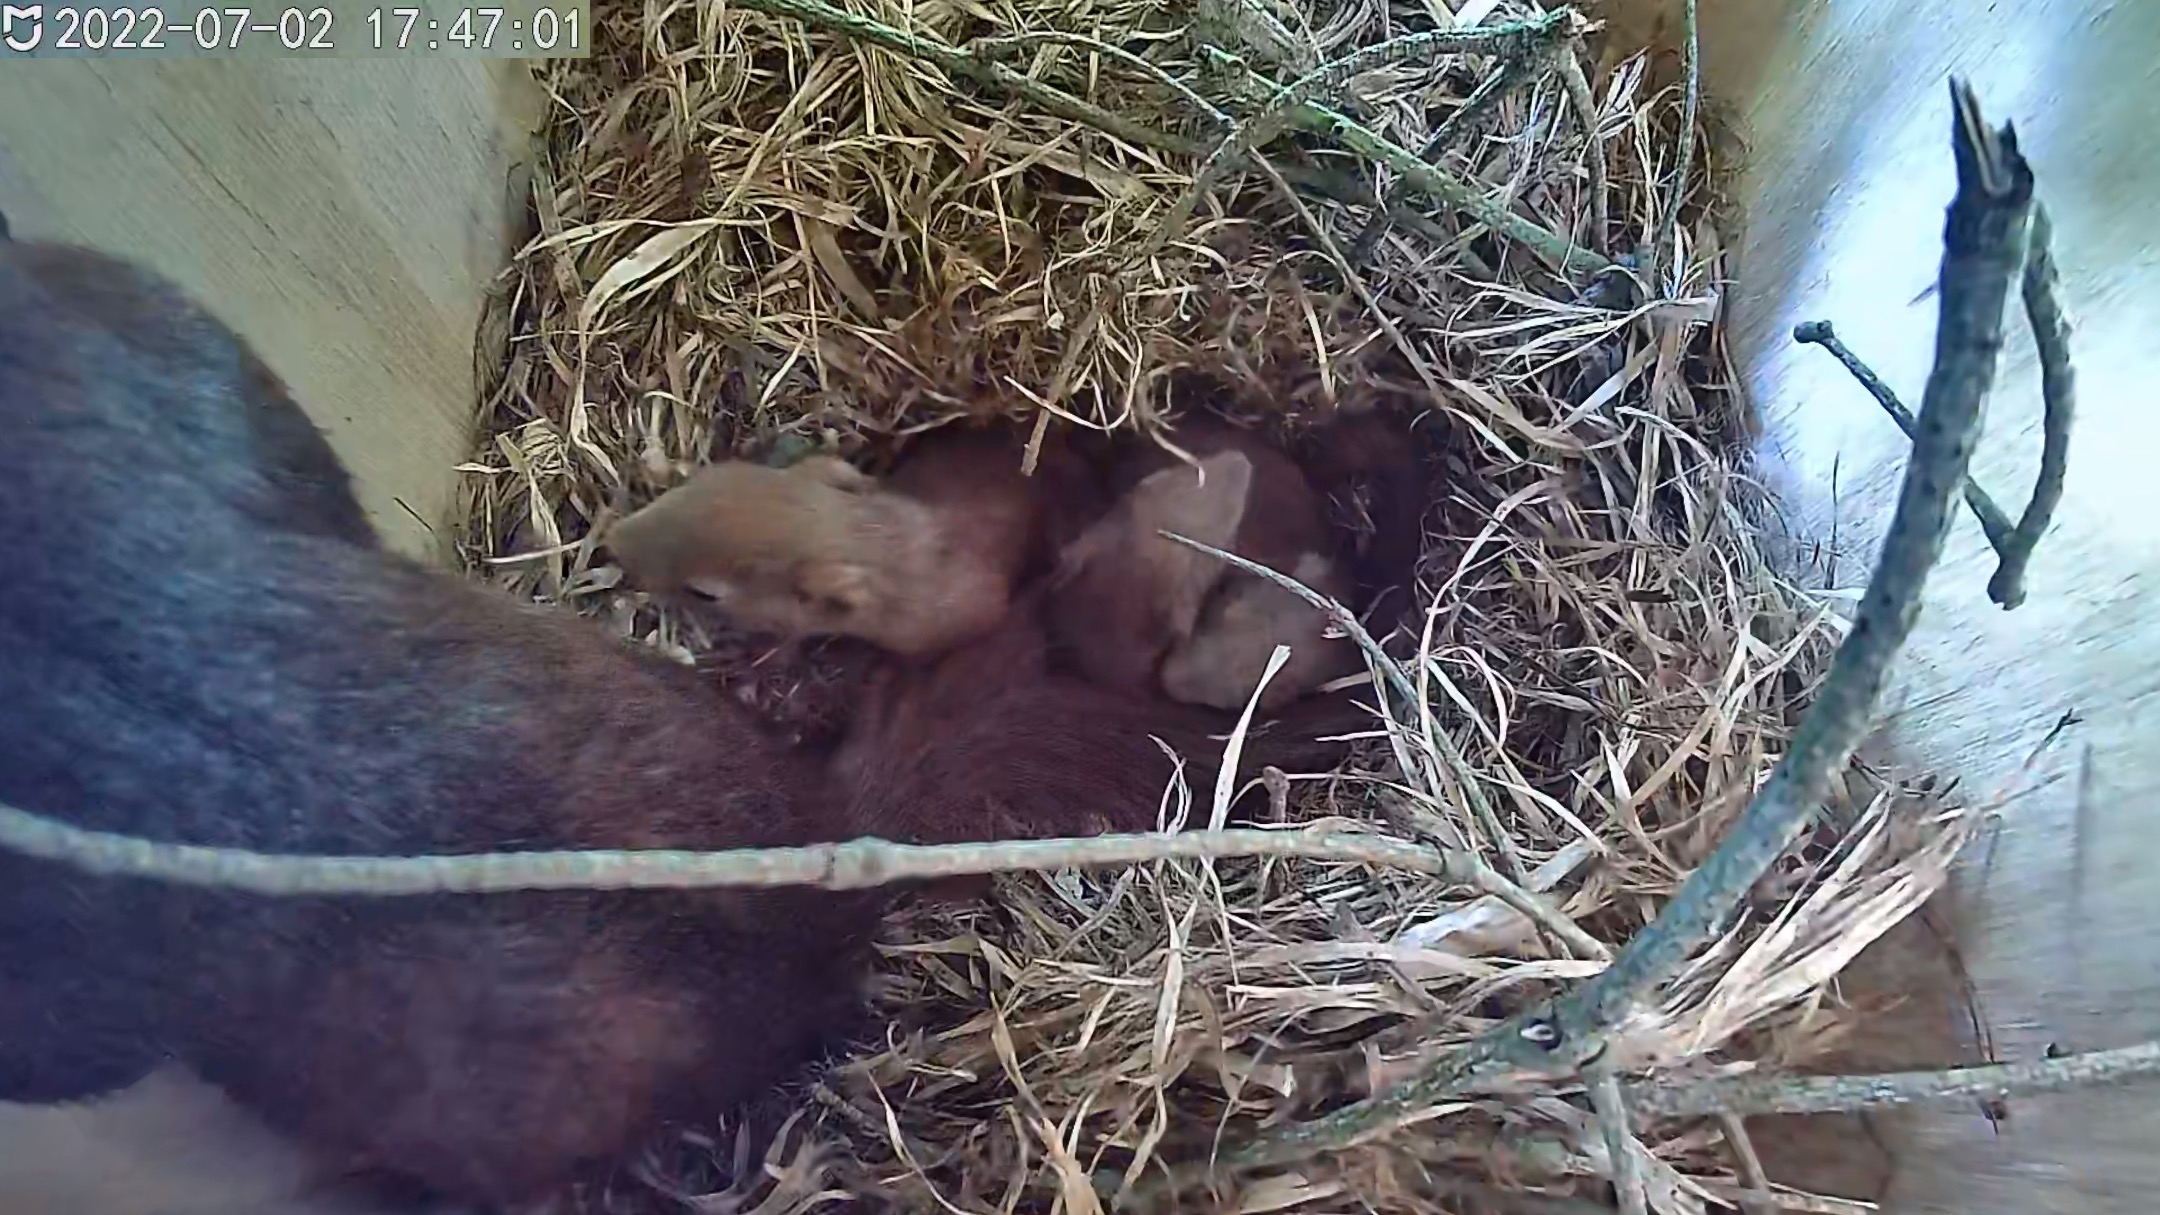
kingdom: Animalia
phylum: Chordata
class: Mammalia
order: Rodentia
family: Sciuridae
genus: Sciurus
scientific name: Sciurus vulgaris
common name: Egern
